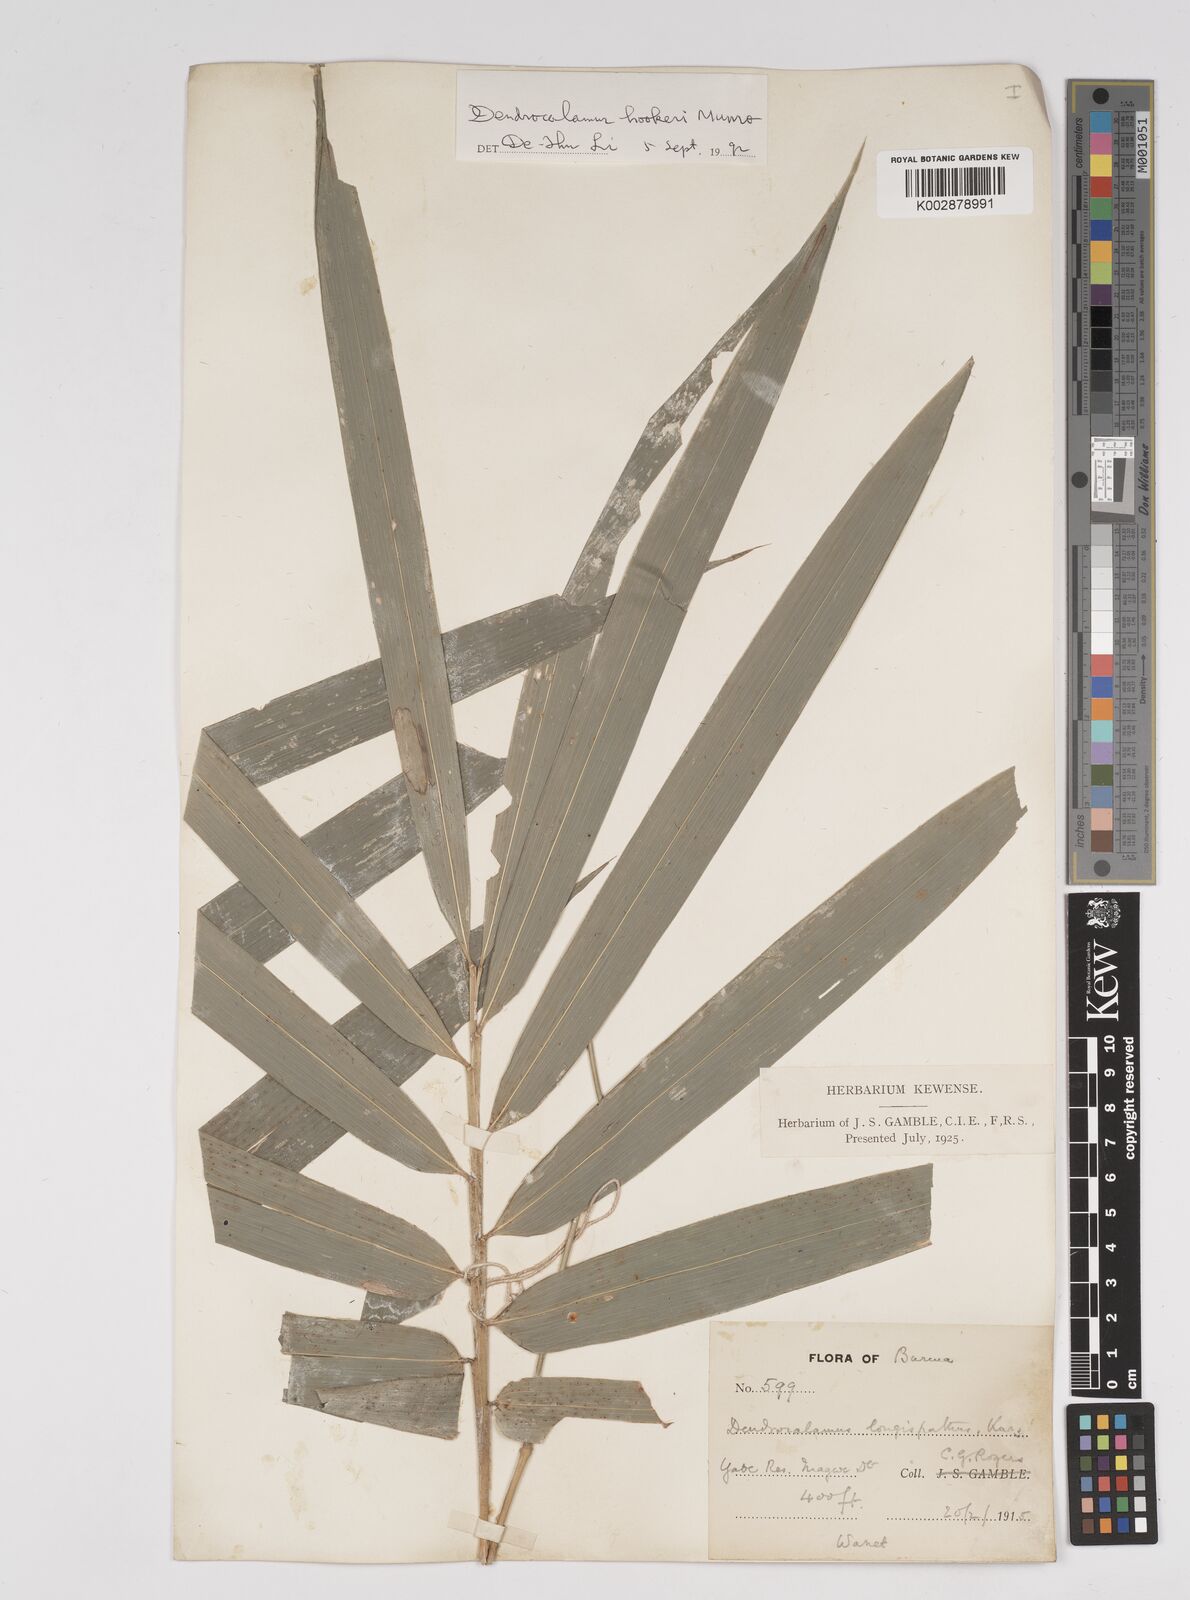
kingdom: Plantae
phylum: Tracheophyta
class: Liliopsida
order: Poales
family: Poaceae
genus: Dendrocalamus
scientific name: Dendrocalamus longispathus
